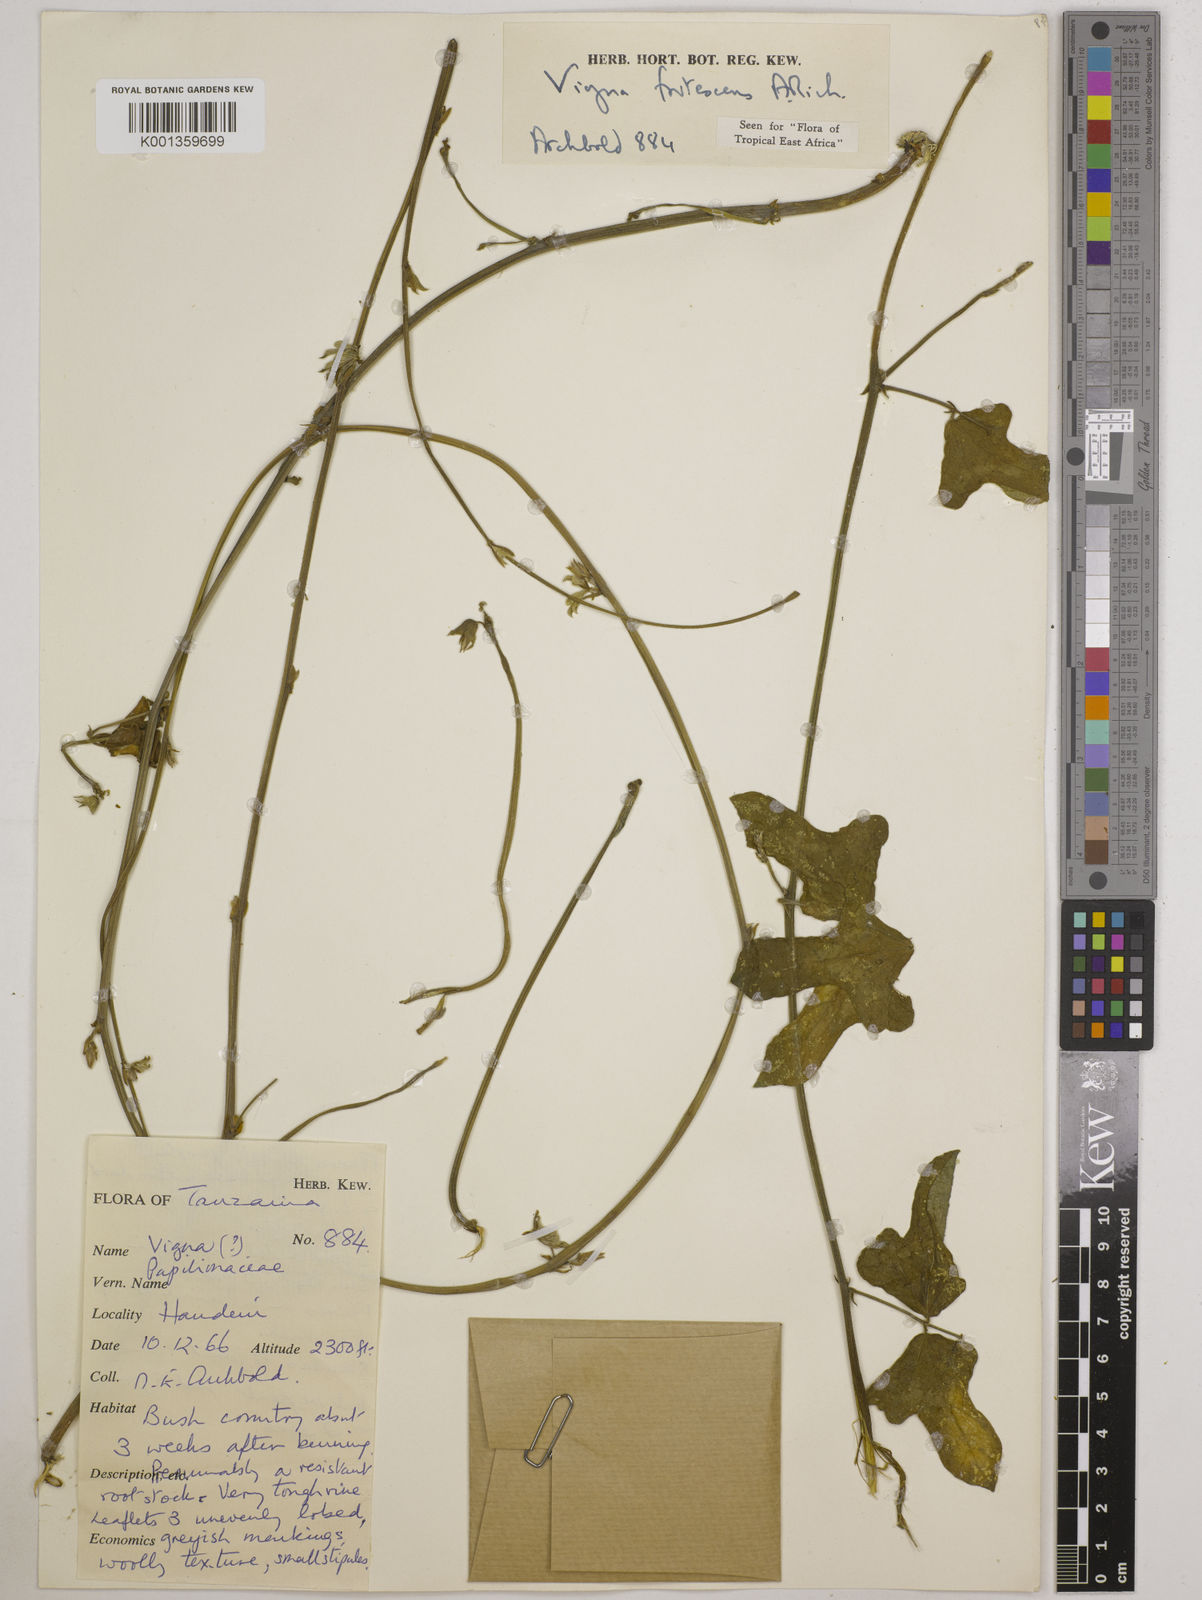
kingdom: Plantae
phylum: Tracheophyta
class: Magnoliopsida
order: Fabales
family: Fabaceae
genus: Vigna
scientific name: Vigna frutescens
